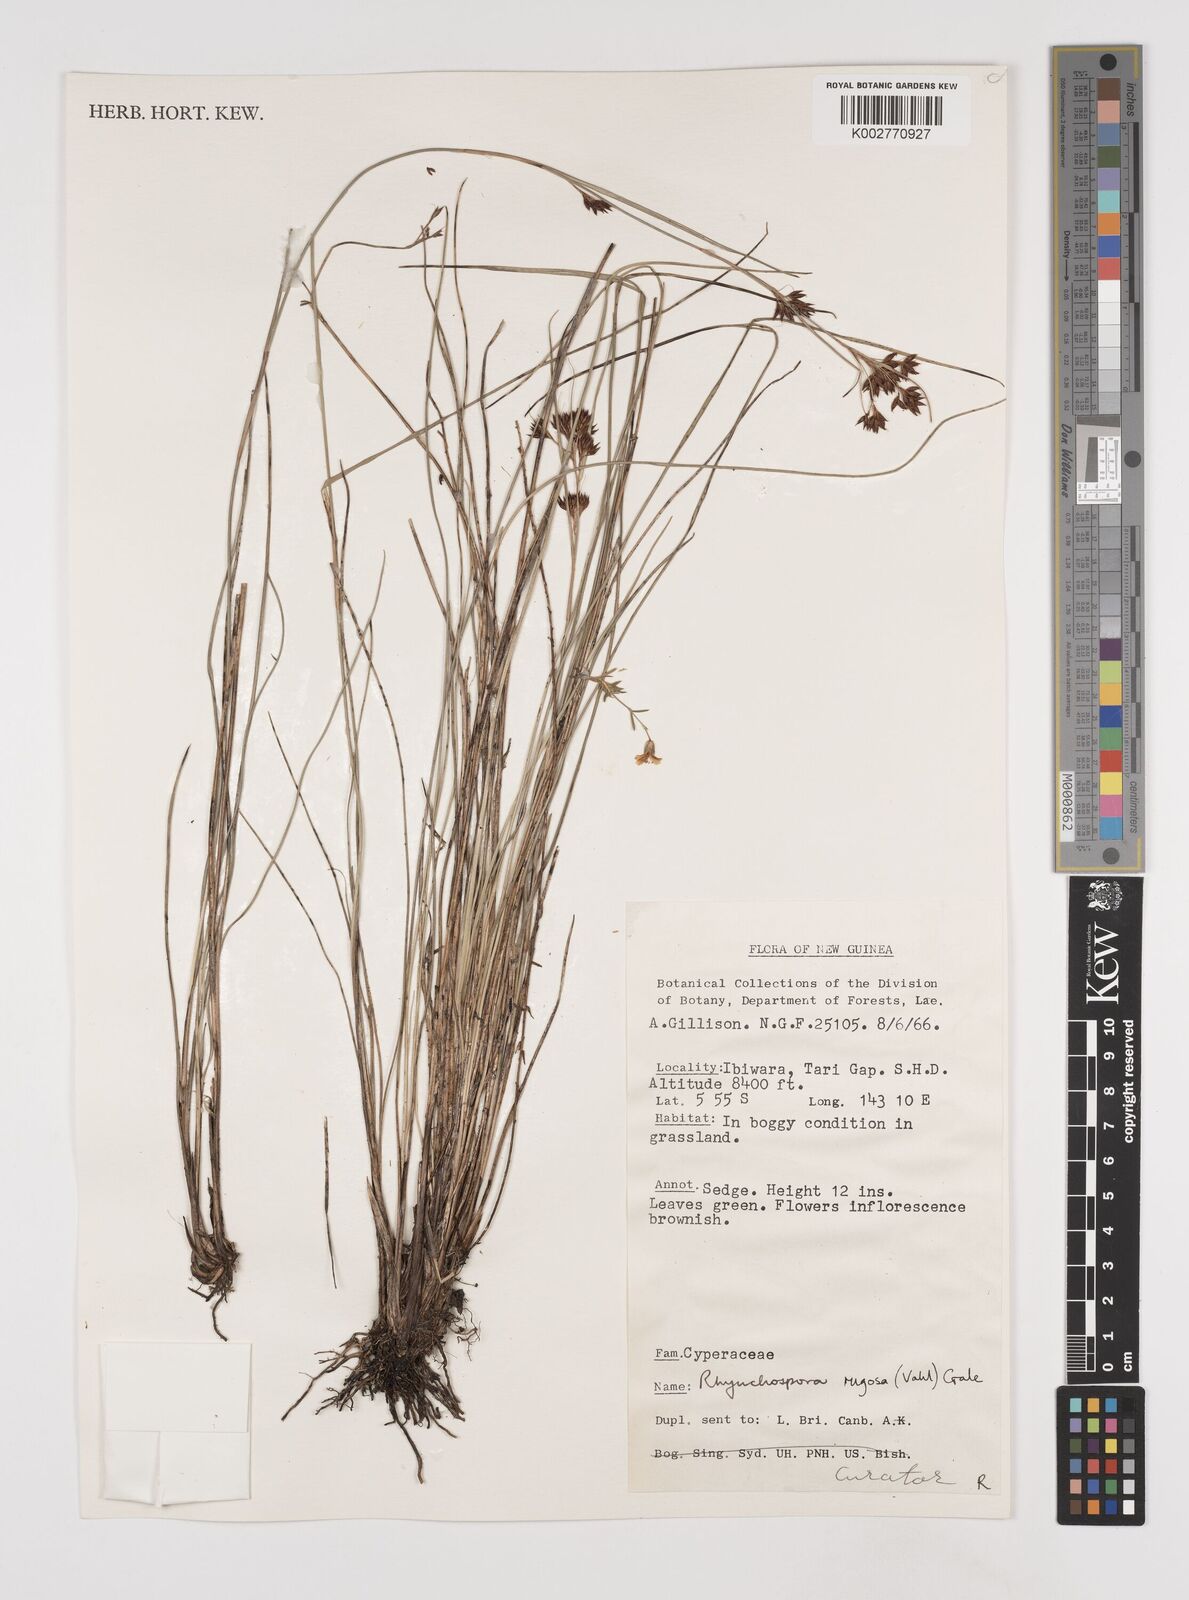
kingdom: Plantae
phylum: Tracheophyta
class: Liliopsida
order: Poales
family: Cyperaceae
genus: Rhynchospora
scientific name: Rhynchospora rugosa
